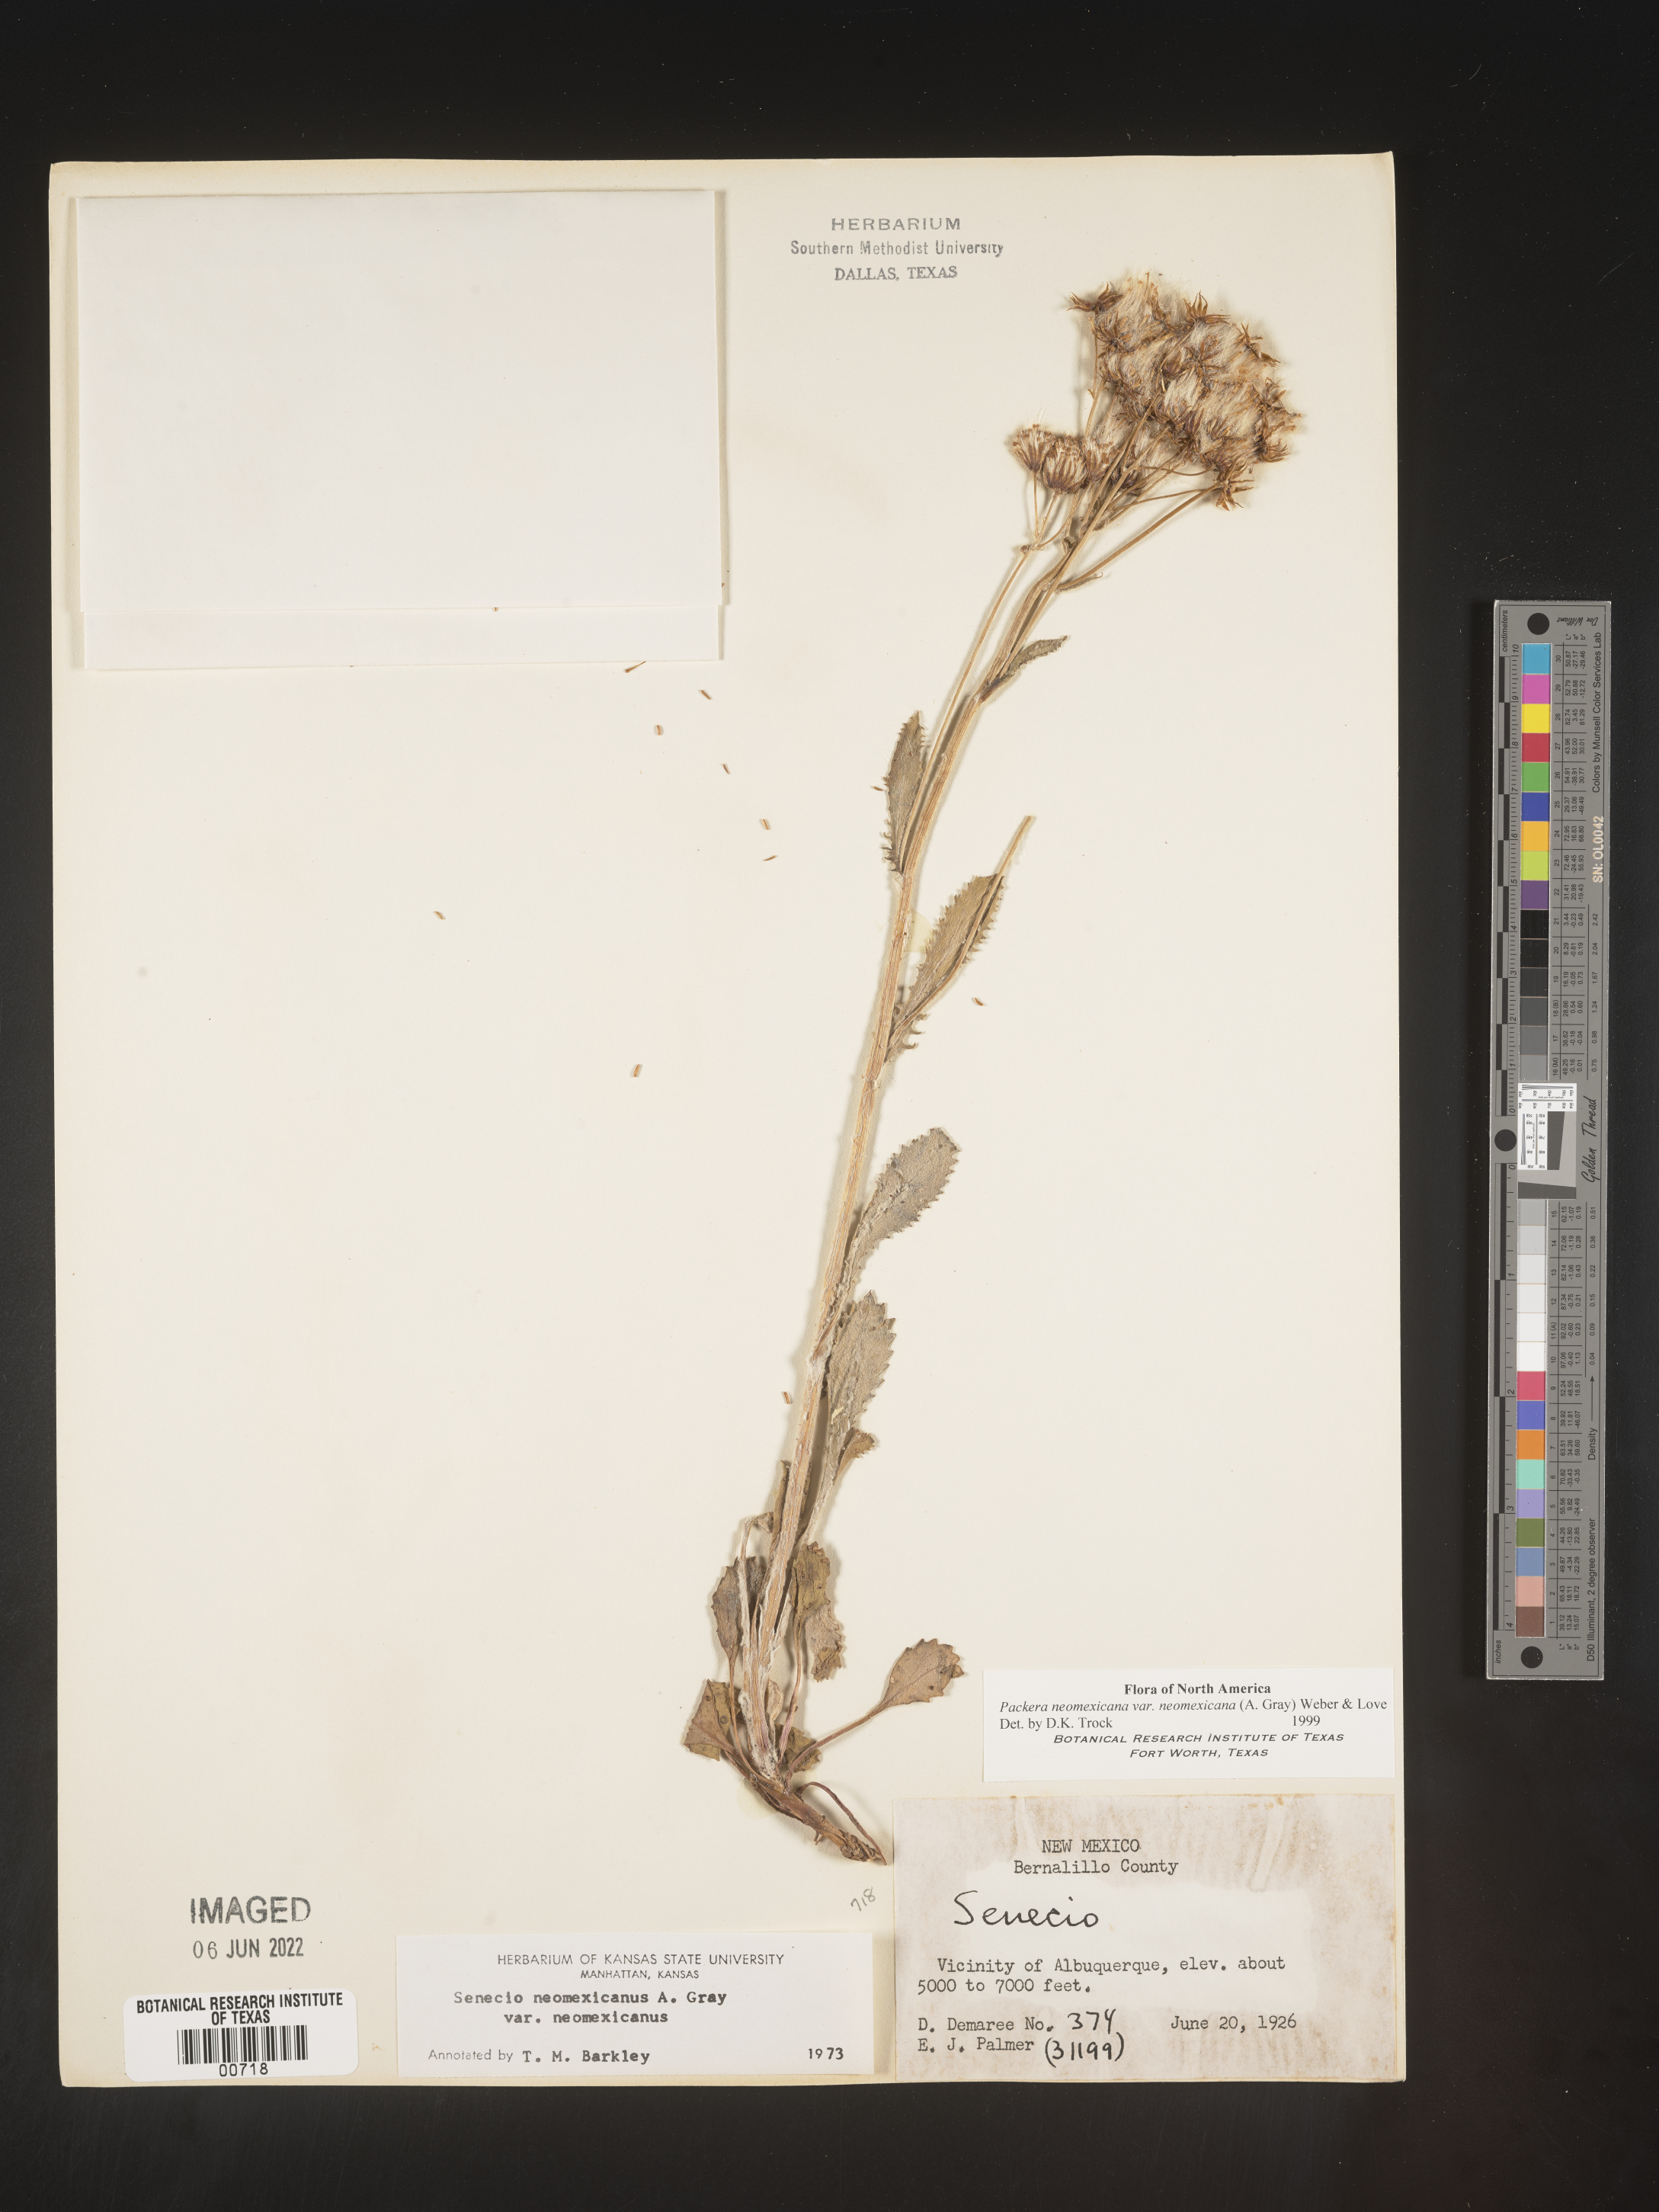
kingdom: Plantae
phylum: Tracheophyta
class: Magnoliopsida
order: Asterales
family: Asteraceae
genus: Packera
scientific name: Packera neomexicana
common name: New mexico butterweed
